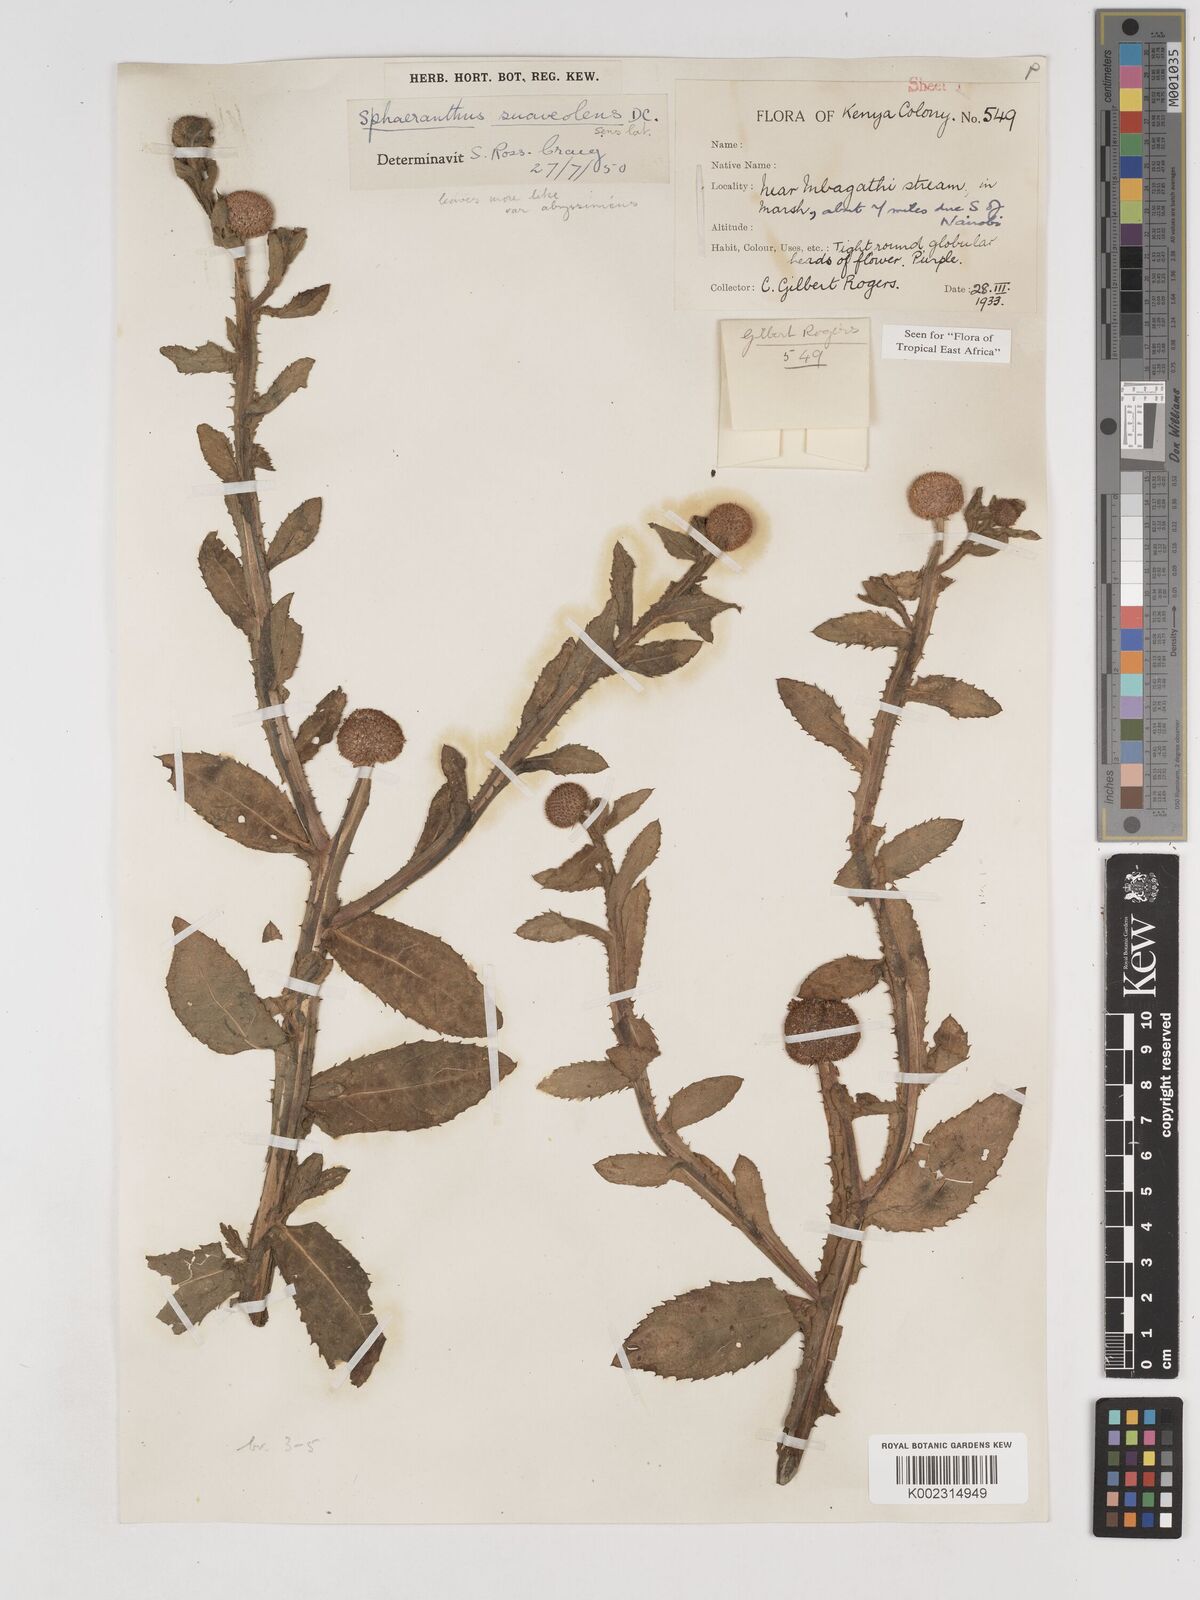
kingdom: Plantae
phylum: Tracheophyta
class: Magnoliopsida
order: Asterales
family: Asteraceae
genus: Sphaeranthus
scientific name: Sphaeranthus suaveolens
